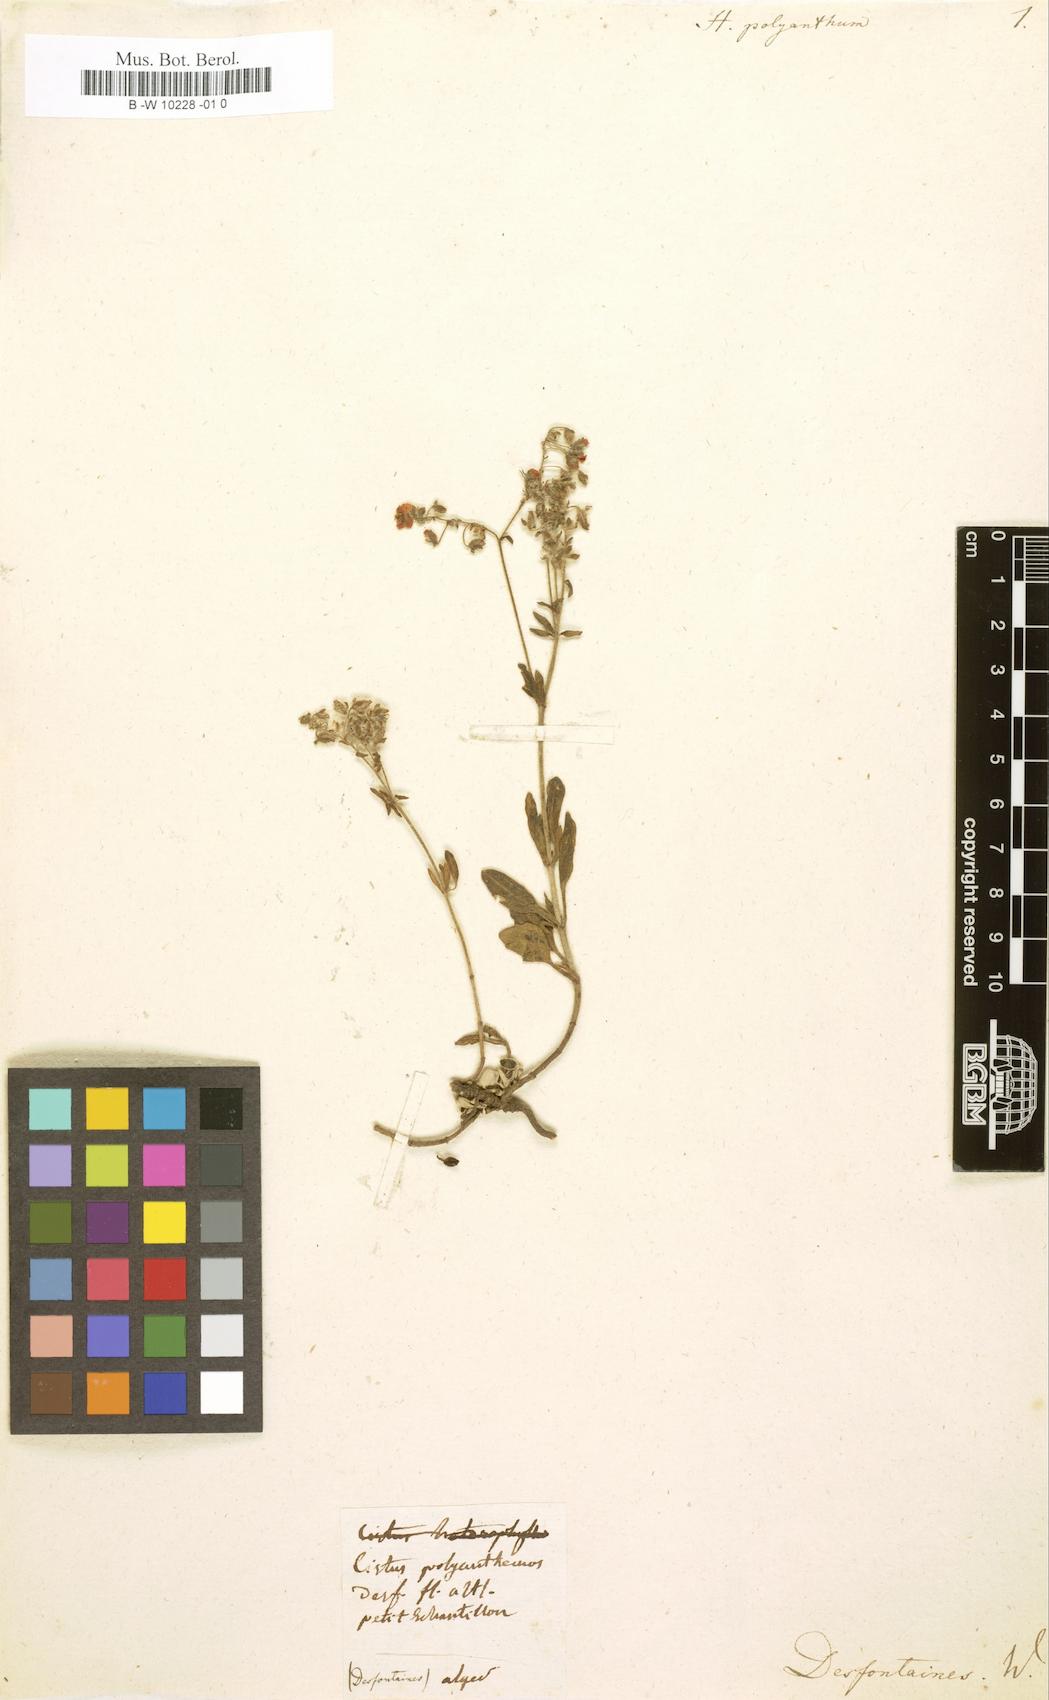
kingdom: Plantae
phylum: Tracheophyta
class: Magnoliopsida
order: Malvales
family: Cistaceae
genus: Helianthemum
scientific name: Helianthemum polyanthum
